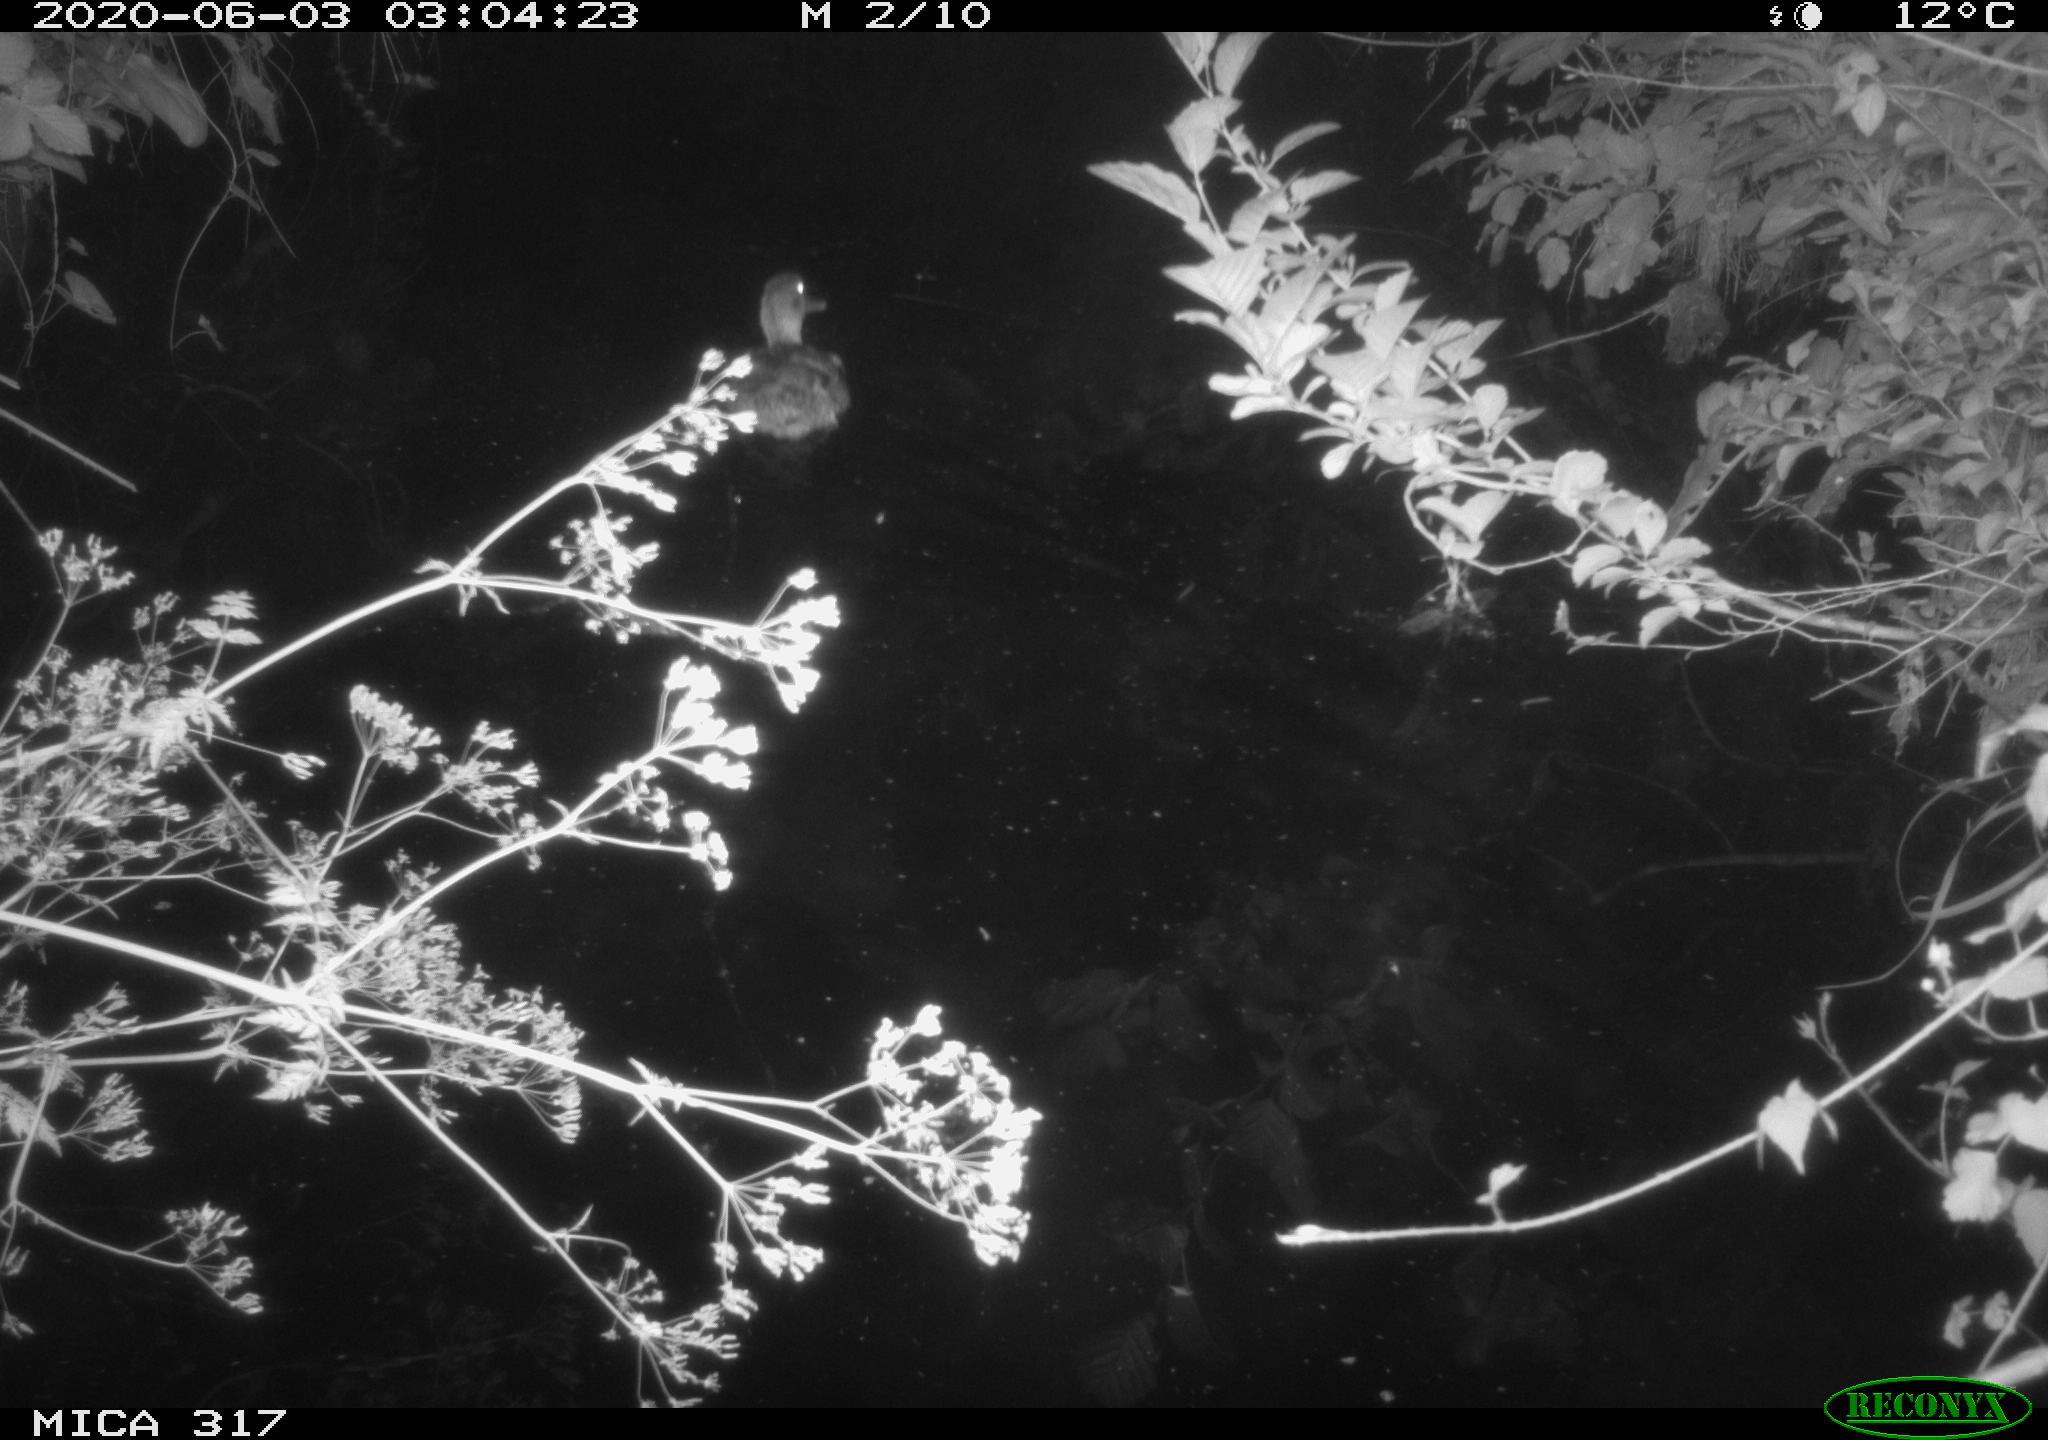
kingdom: Animalia
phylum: Chordata
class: Aves
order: Anseriformes
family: Anatidae
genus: Anas
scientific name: Anas platyrhynchos
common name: Mallard
